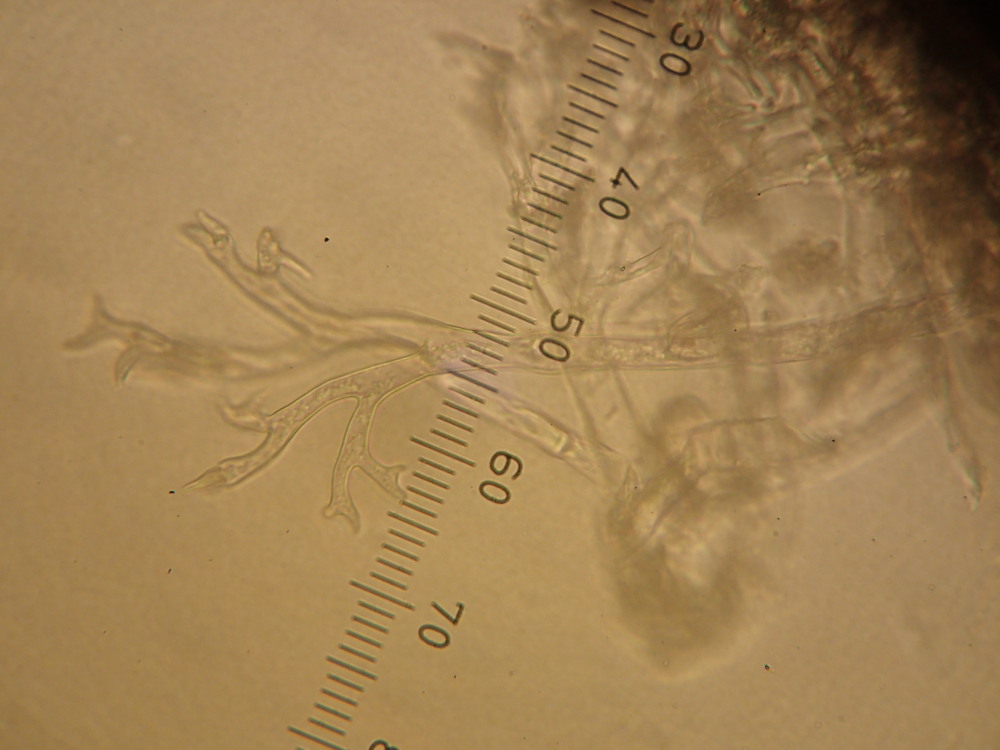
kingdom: Chromista
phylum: Oomycota
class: Peronosporea
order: Peronosporales
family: Peronosporaceae
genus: Peronospora
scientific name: Peronospora farinosa
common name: Beet downy mildew
